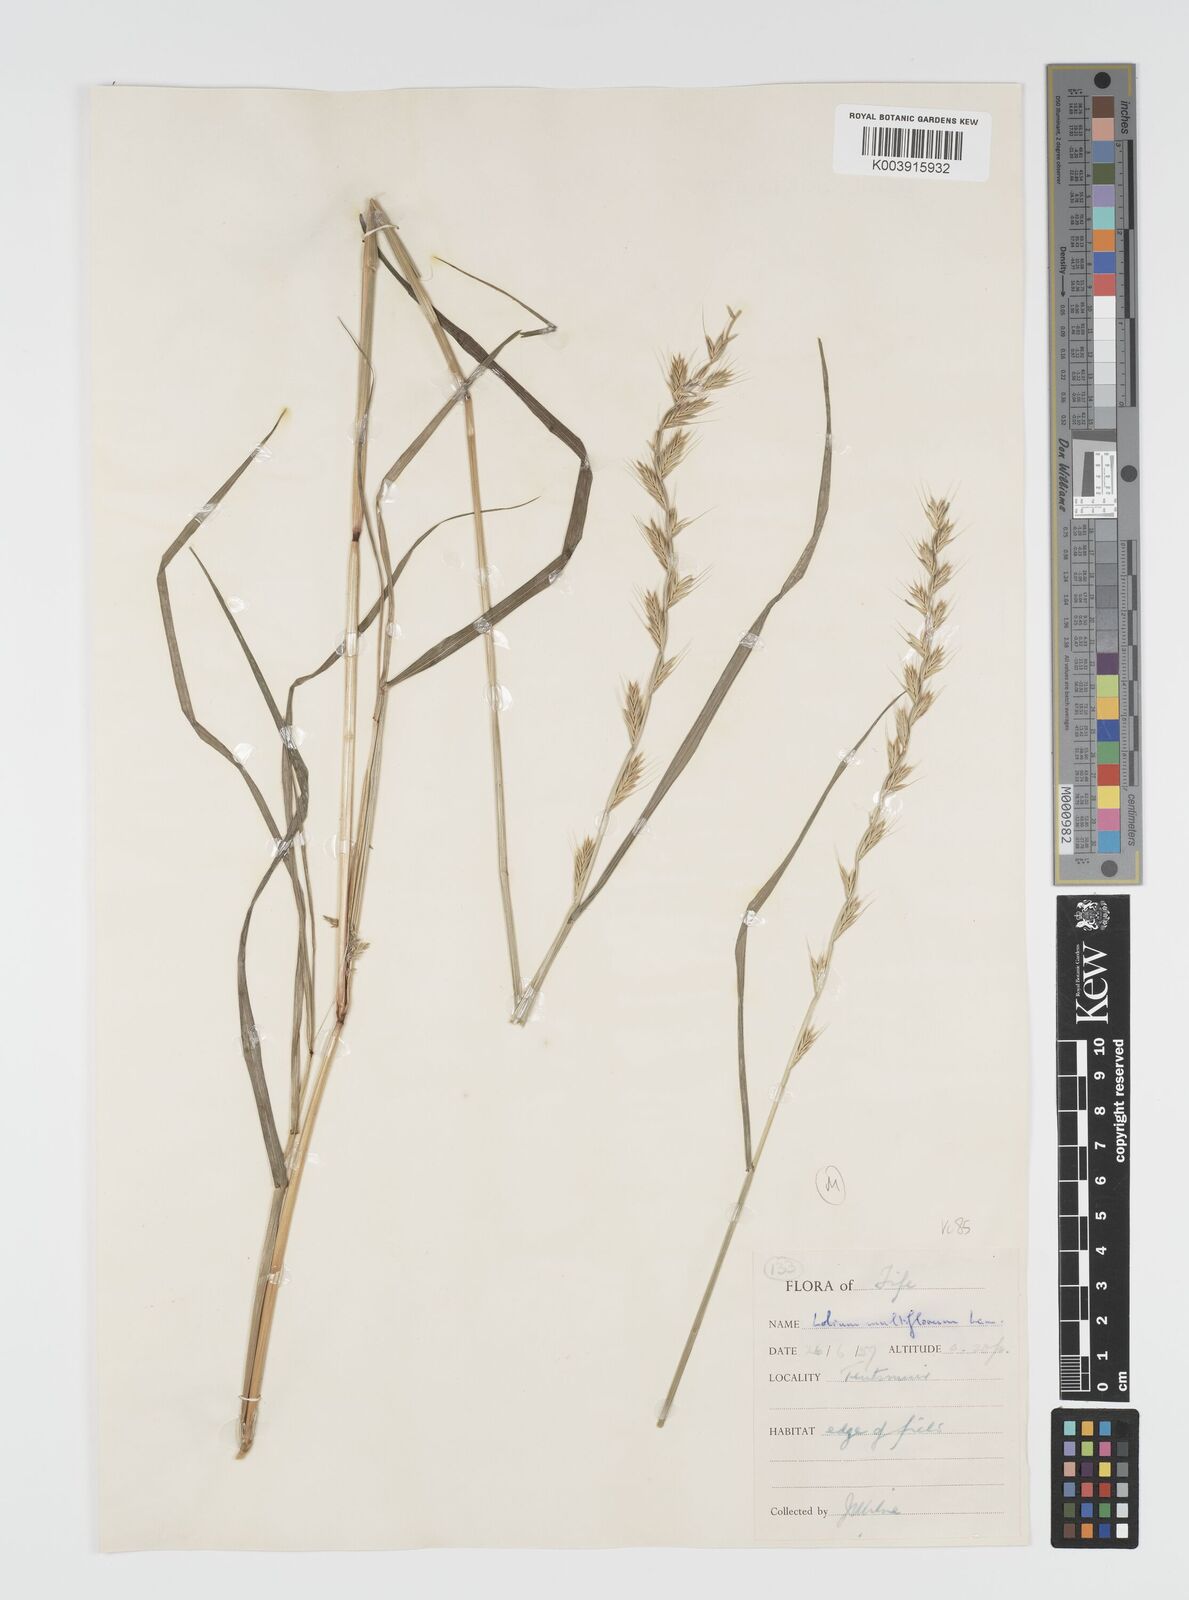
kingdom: Plantae
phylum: Tracheophyta
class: Liliopsida
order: Poales
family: Poaceae
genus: Lolium
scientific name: Lolium multiflorum
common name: Annual ryegrass
